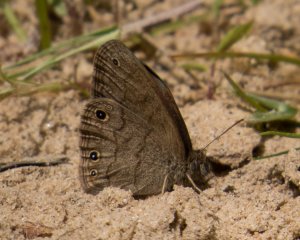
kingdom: Animalia
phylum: Arthropoda
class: Insecta
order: Lepidoptera
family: Nymphalidae
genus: Hermeuptychia
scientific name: Hermeuptychia hermes
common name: Carolina Satyr
